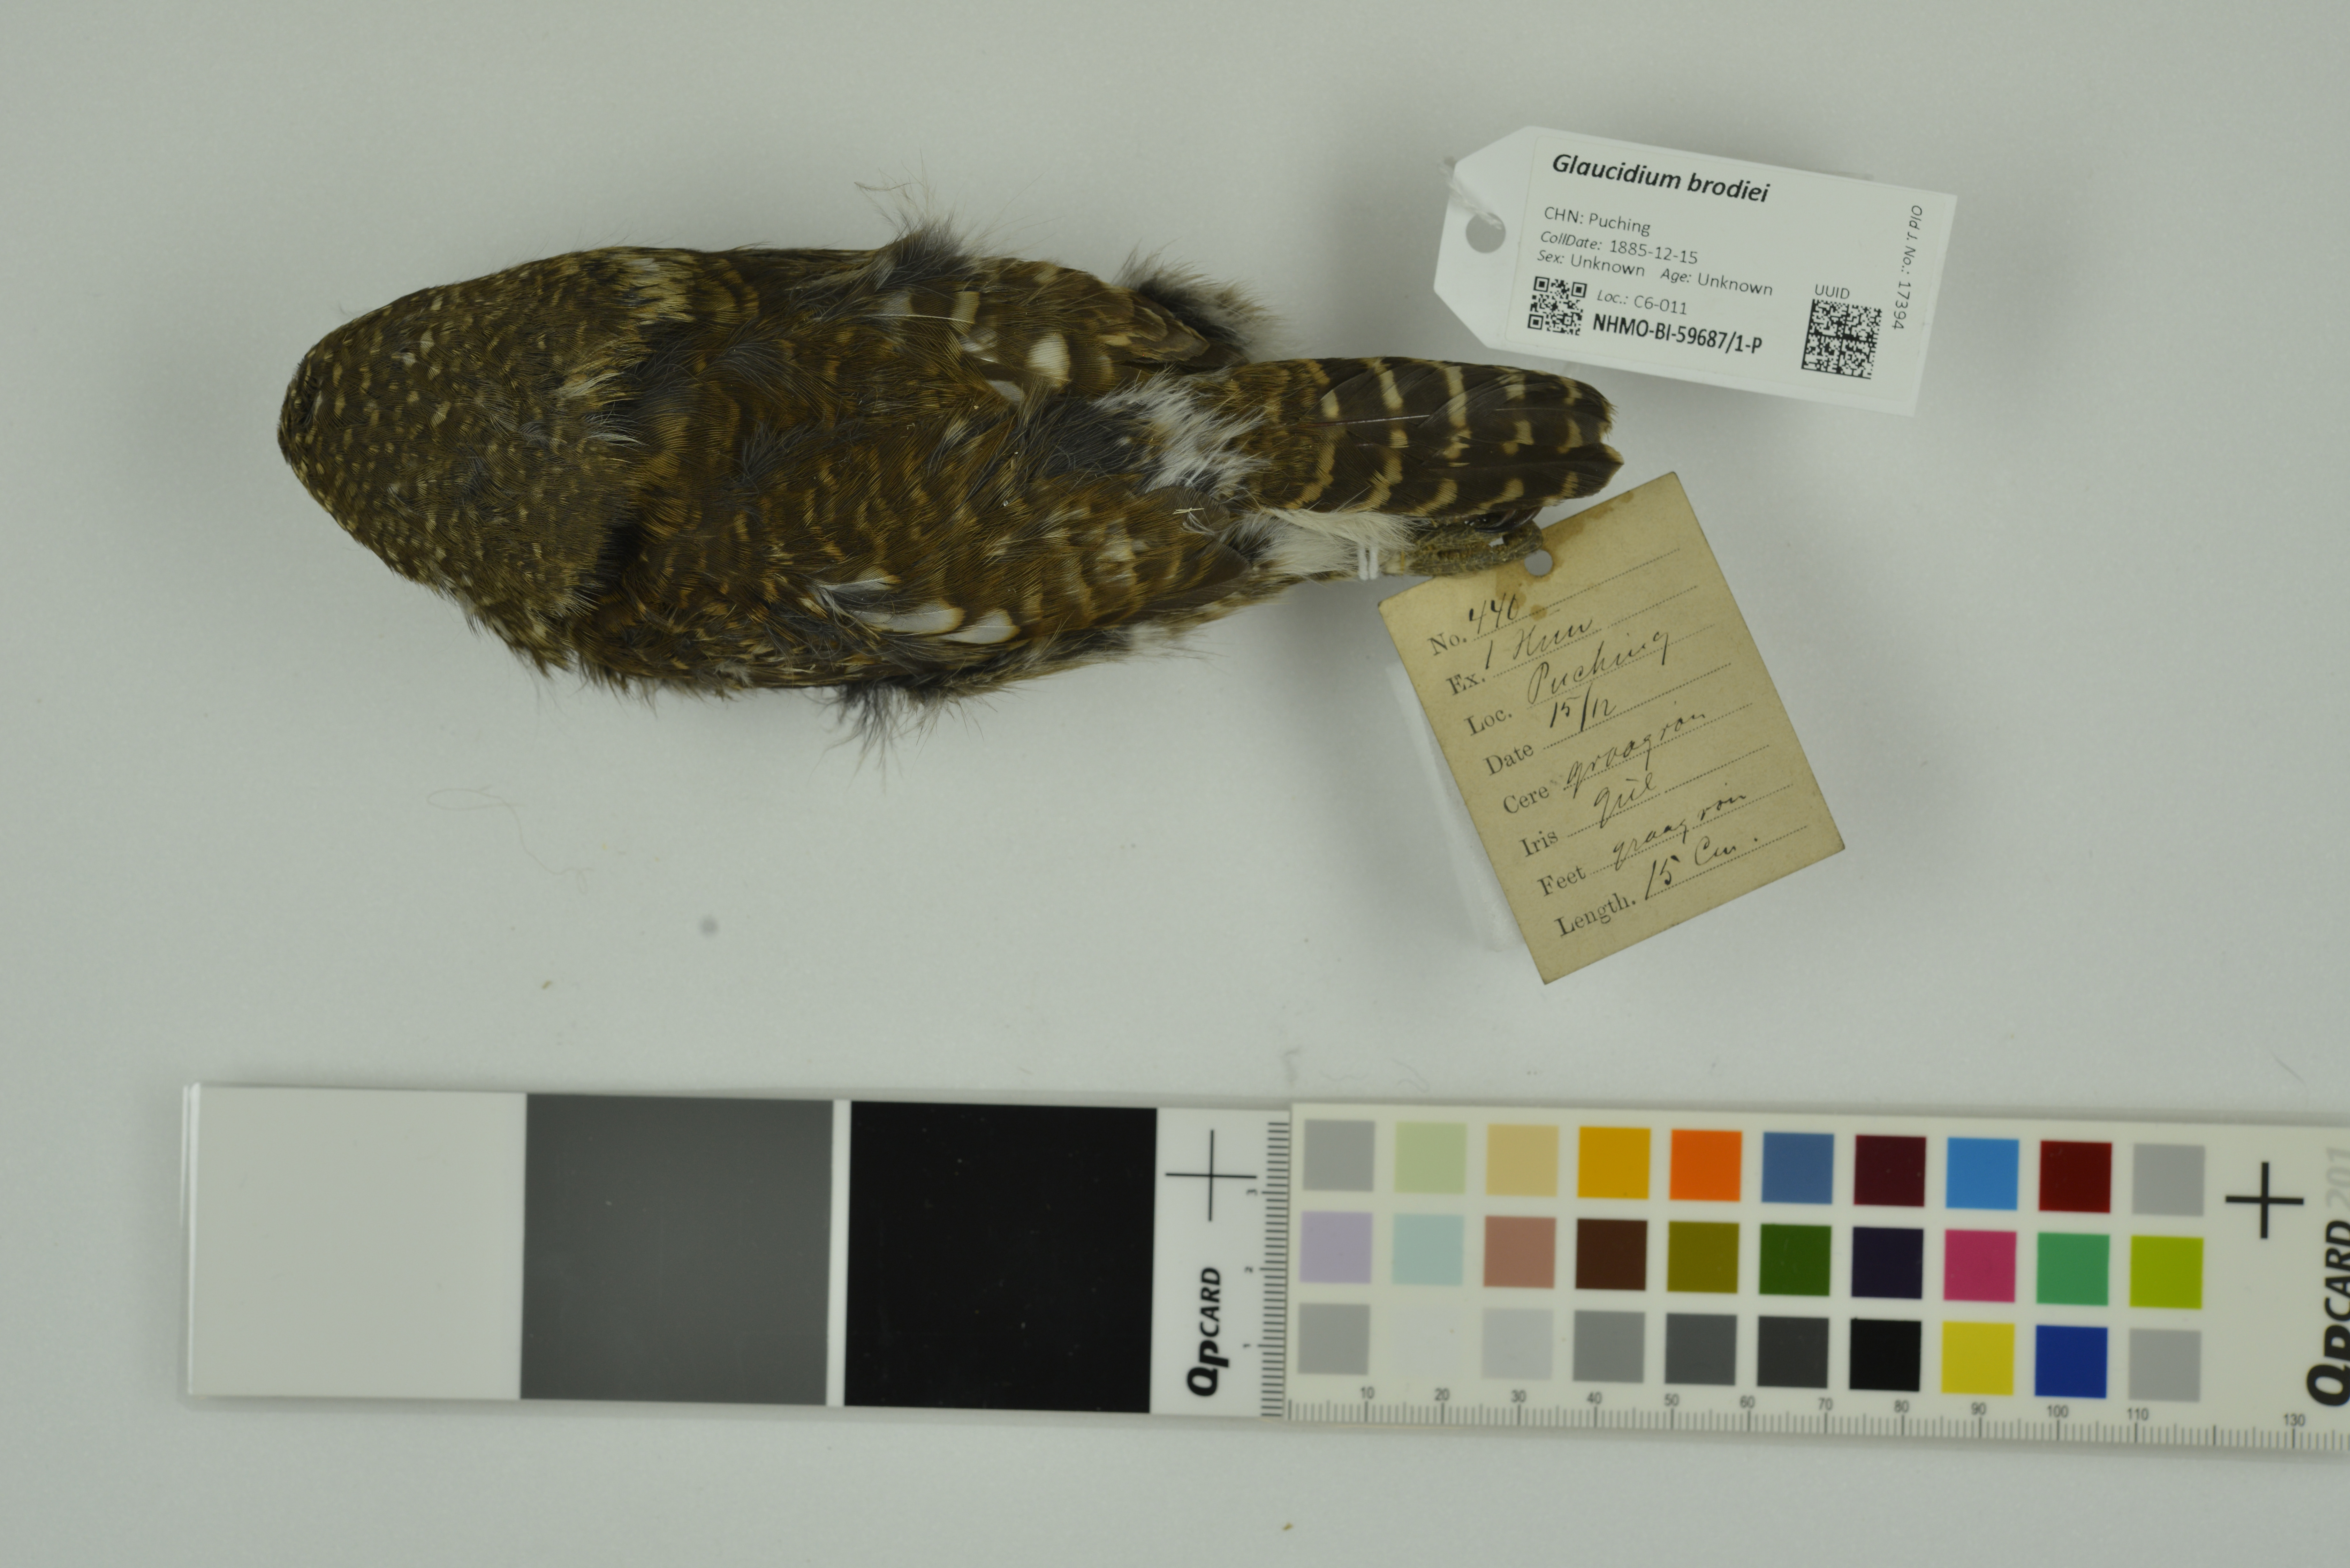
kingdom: Animalia
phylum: Chordata
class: Aves
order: Strigiformes
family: Strigidae
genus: Glaucidium
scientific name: Glaucidium brodiei
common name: Collared owlet
